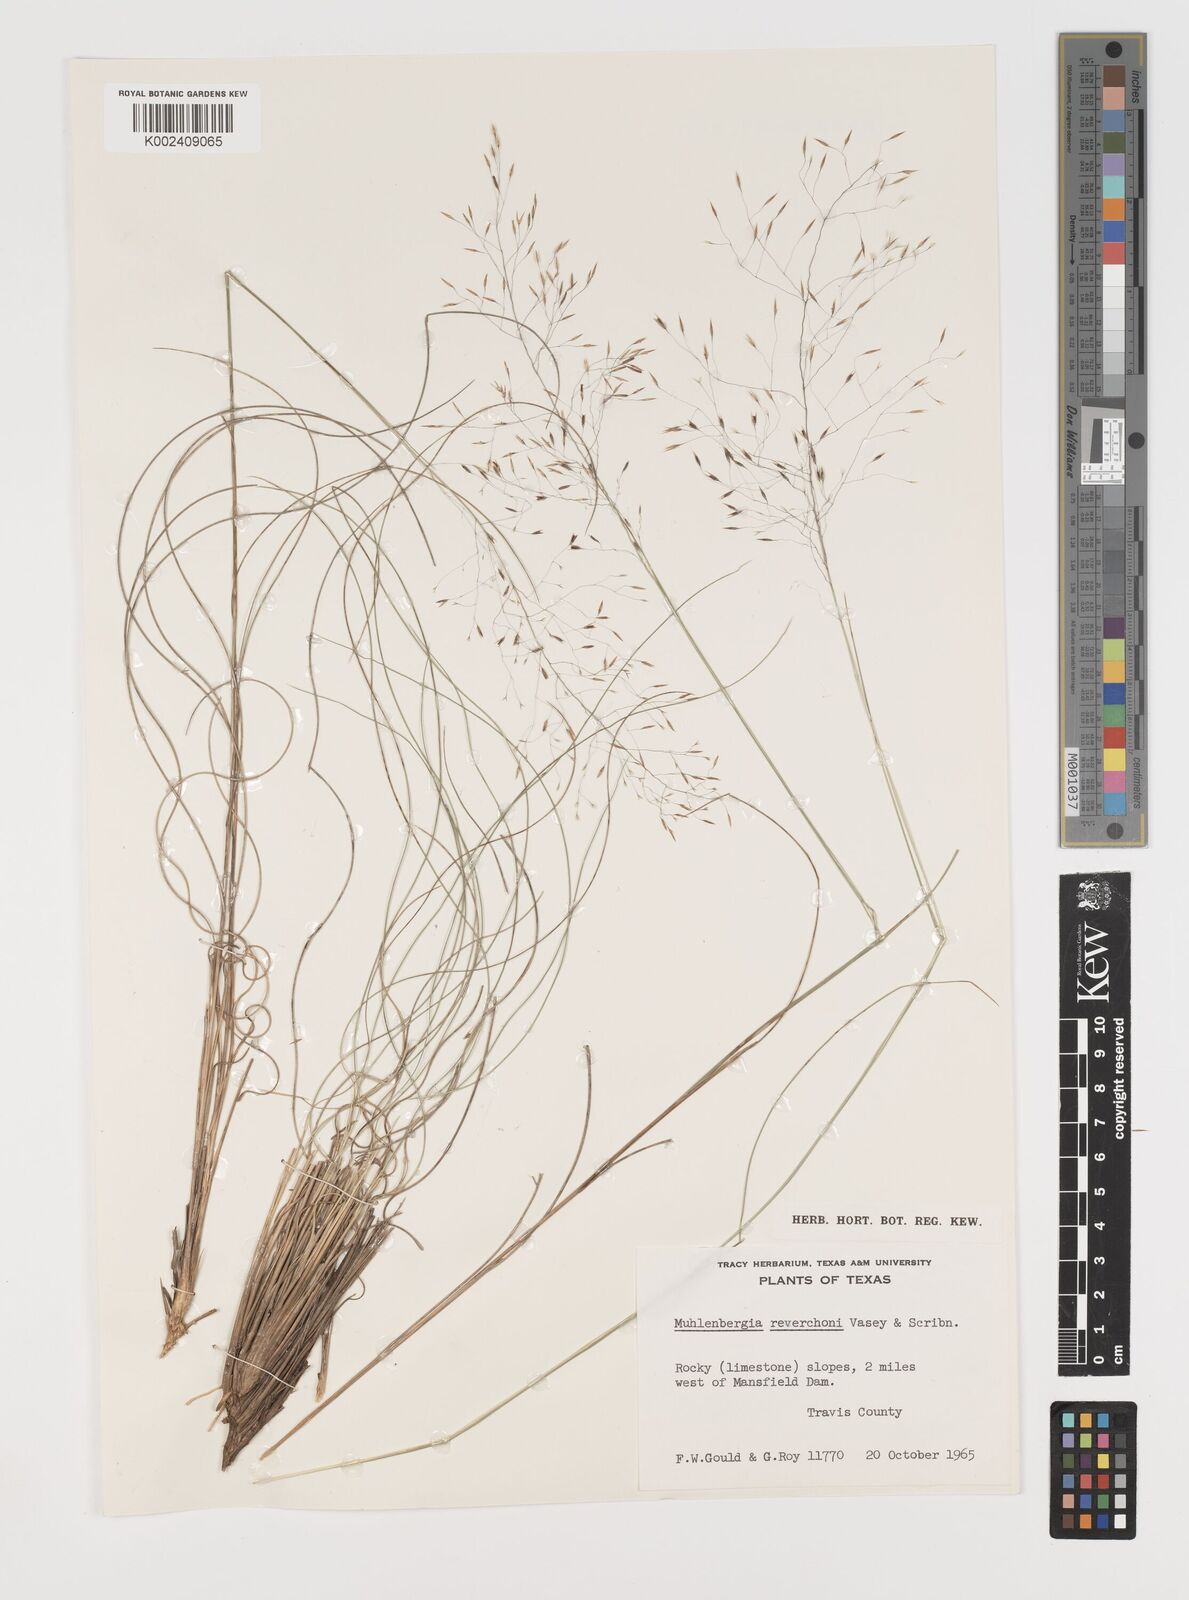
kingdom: Plantae
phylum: Tracheophyta
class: Liliopsida
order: Poales
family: Poaceae
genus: Muhlenbergia
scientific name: Muhlenbergia reverchonii
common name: Seep muhly
